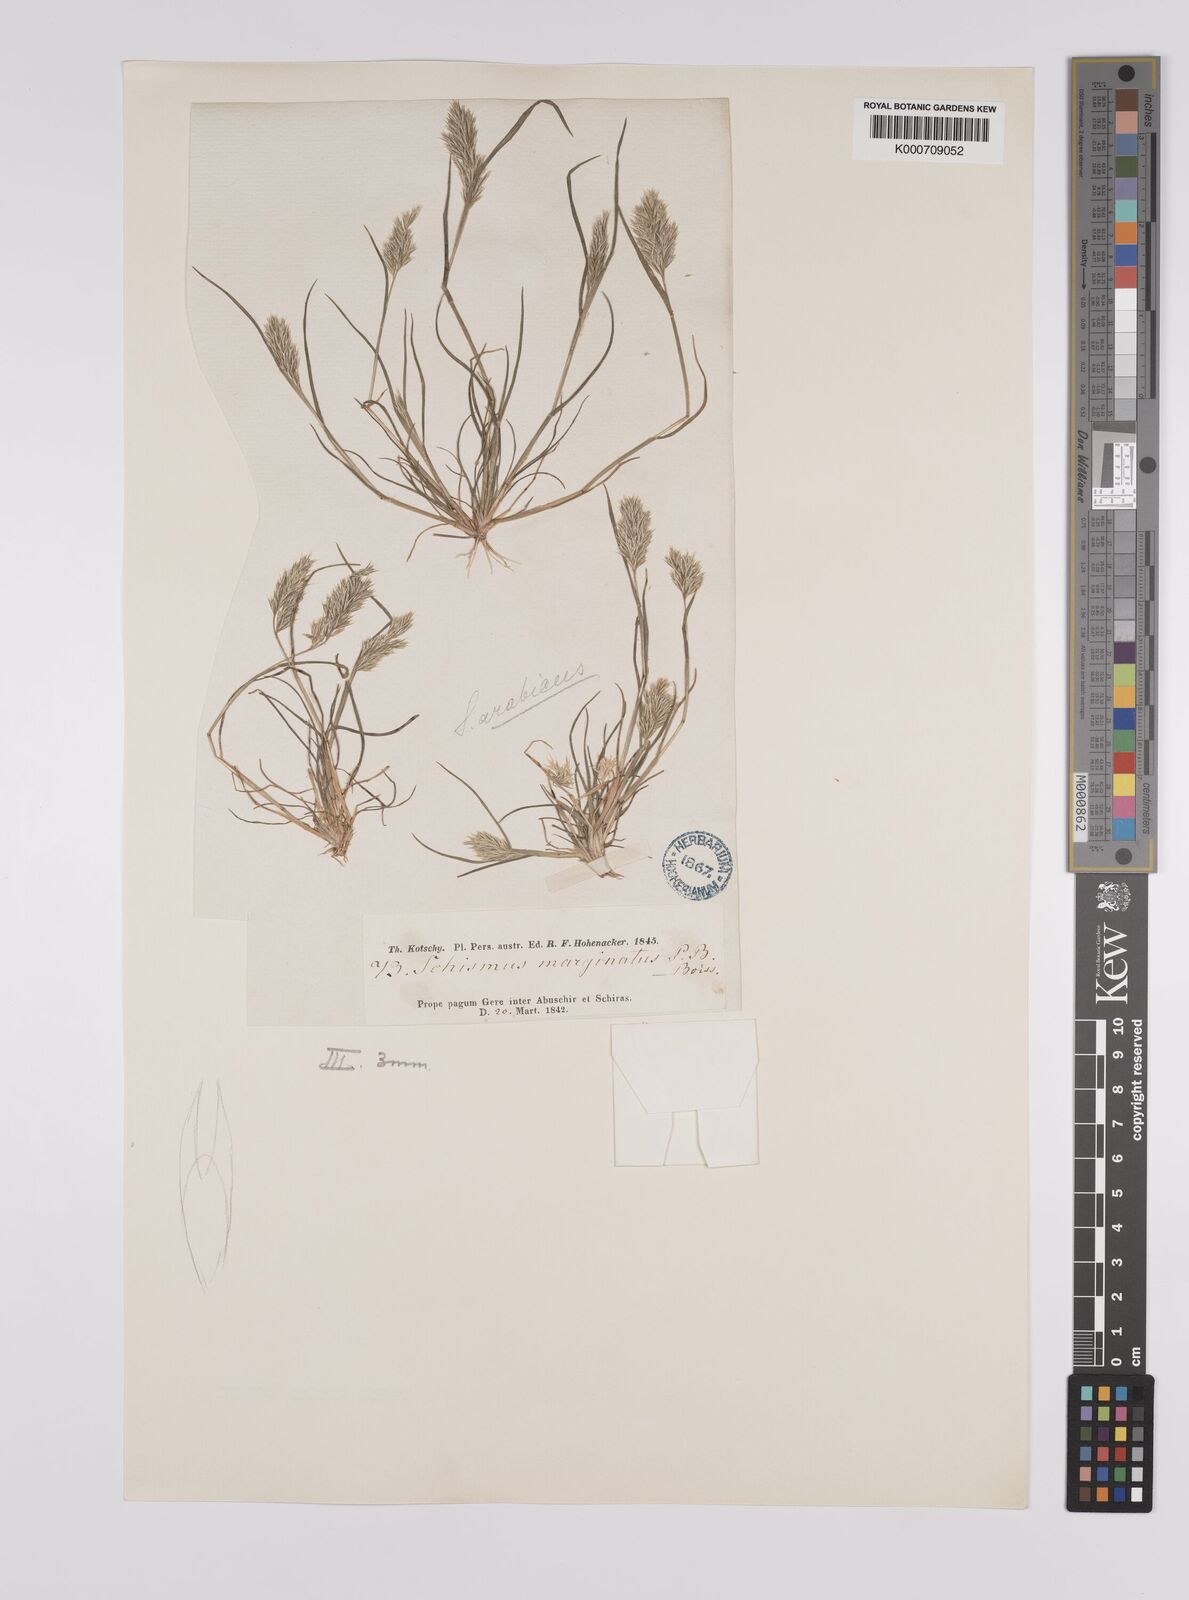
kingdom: Plantae
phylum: Tracheophyta
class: Liliopsida
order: Poales
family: Poaceae
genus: Schismus
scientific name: Schismus arabicus
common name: Arabian schismus
